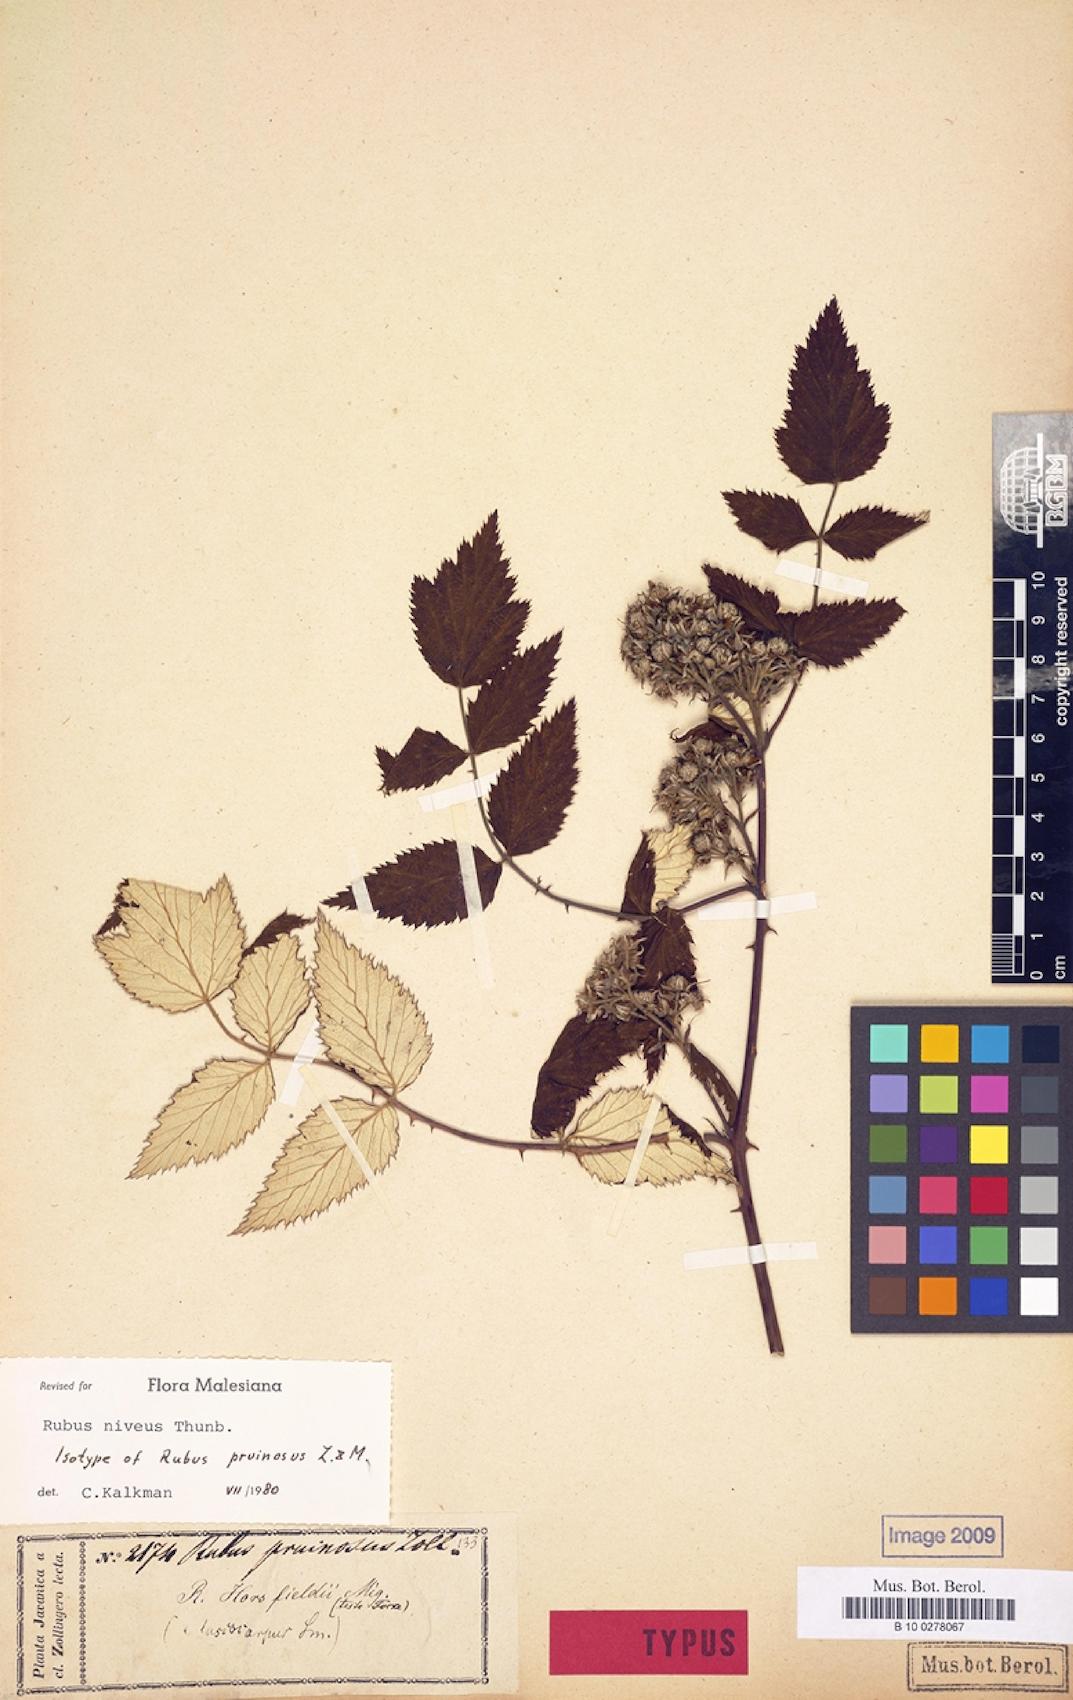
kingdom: Plantae
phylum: Tracheophyta
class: Magnoliopsida
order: Rosales
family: Rosaceae
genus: Rubus
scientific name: Rubus niveus
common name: Snowpeaks raspberry
